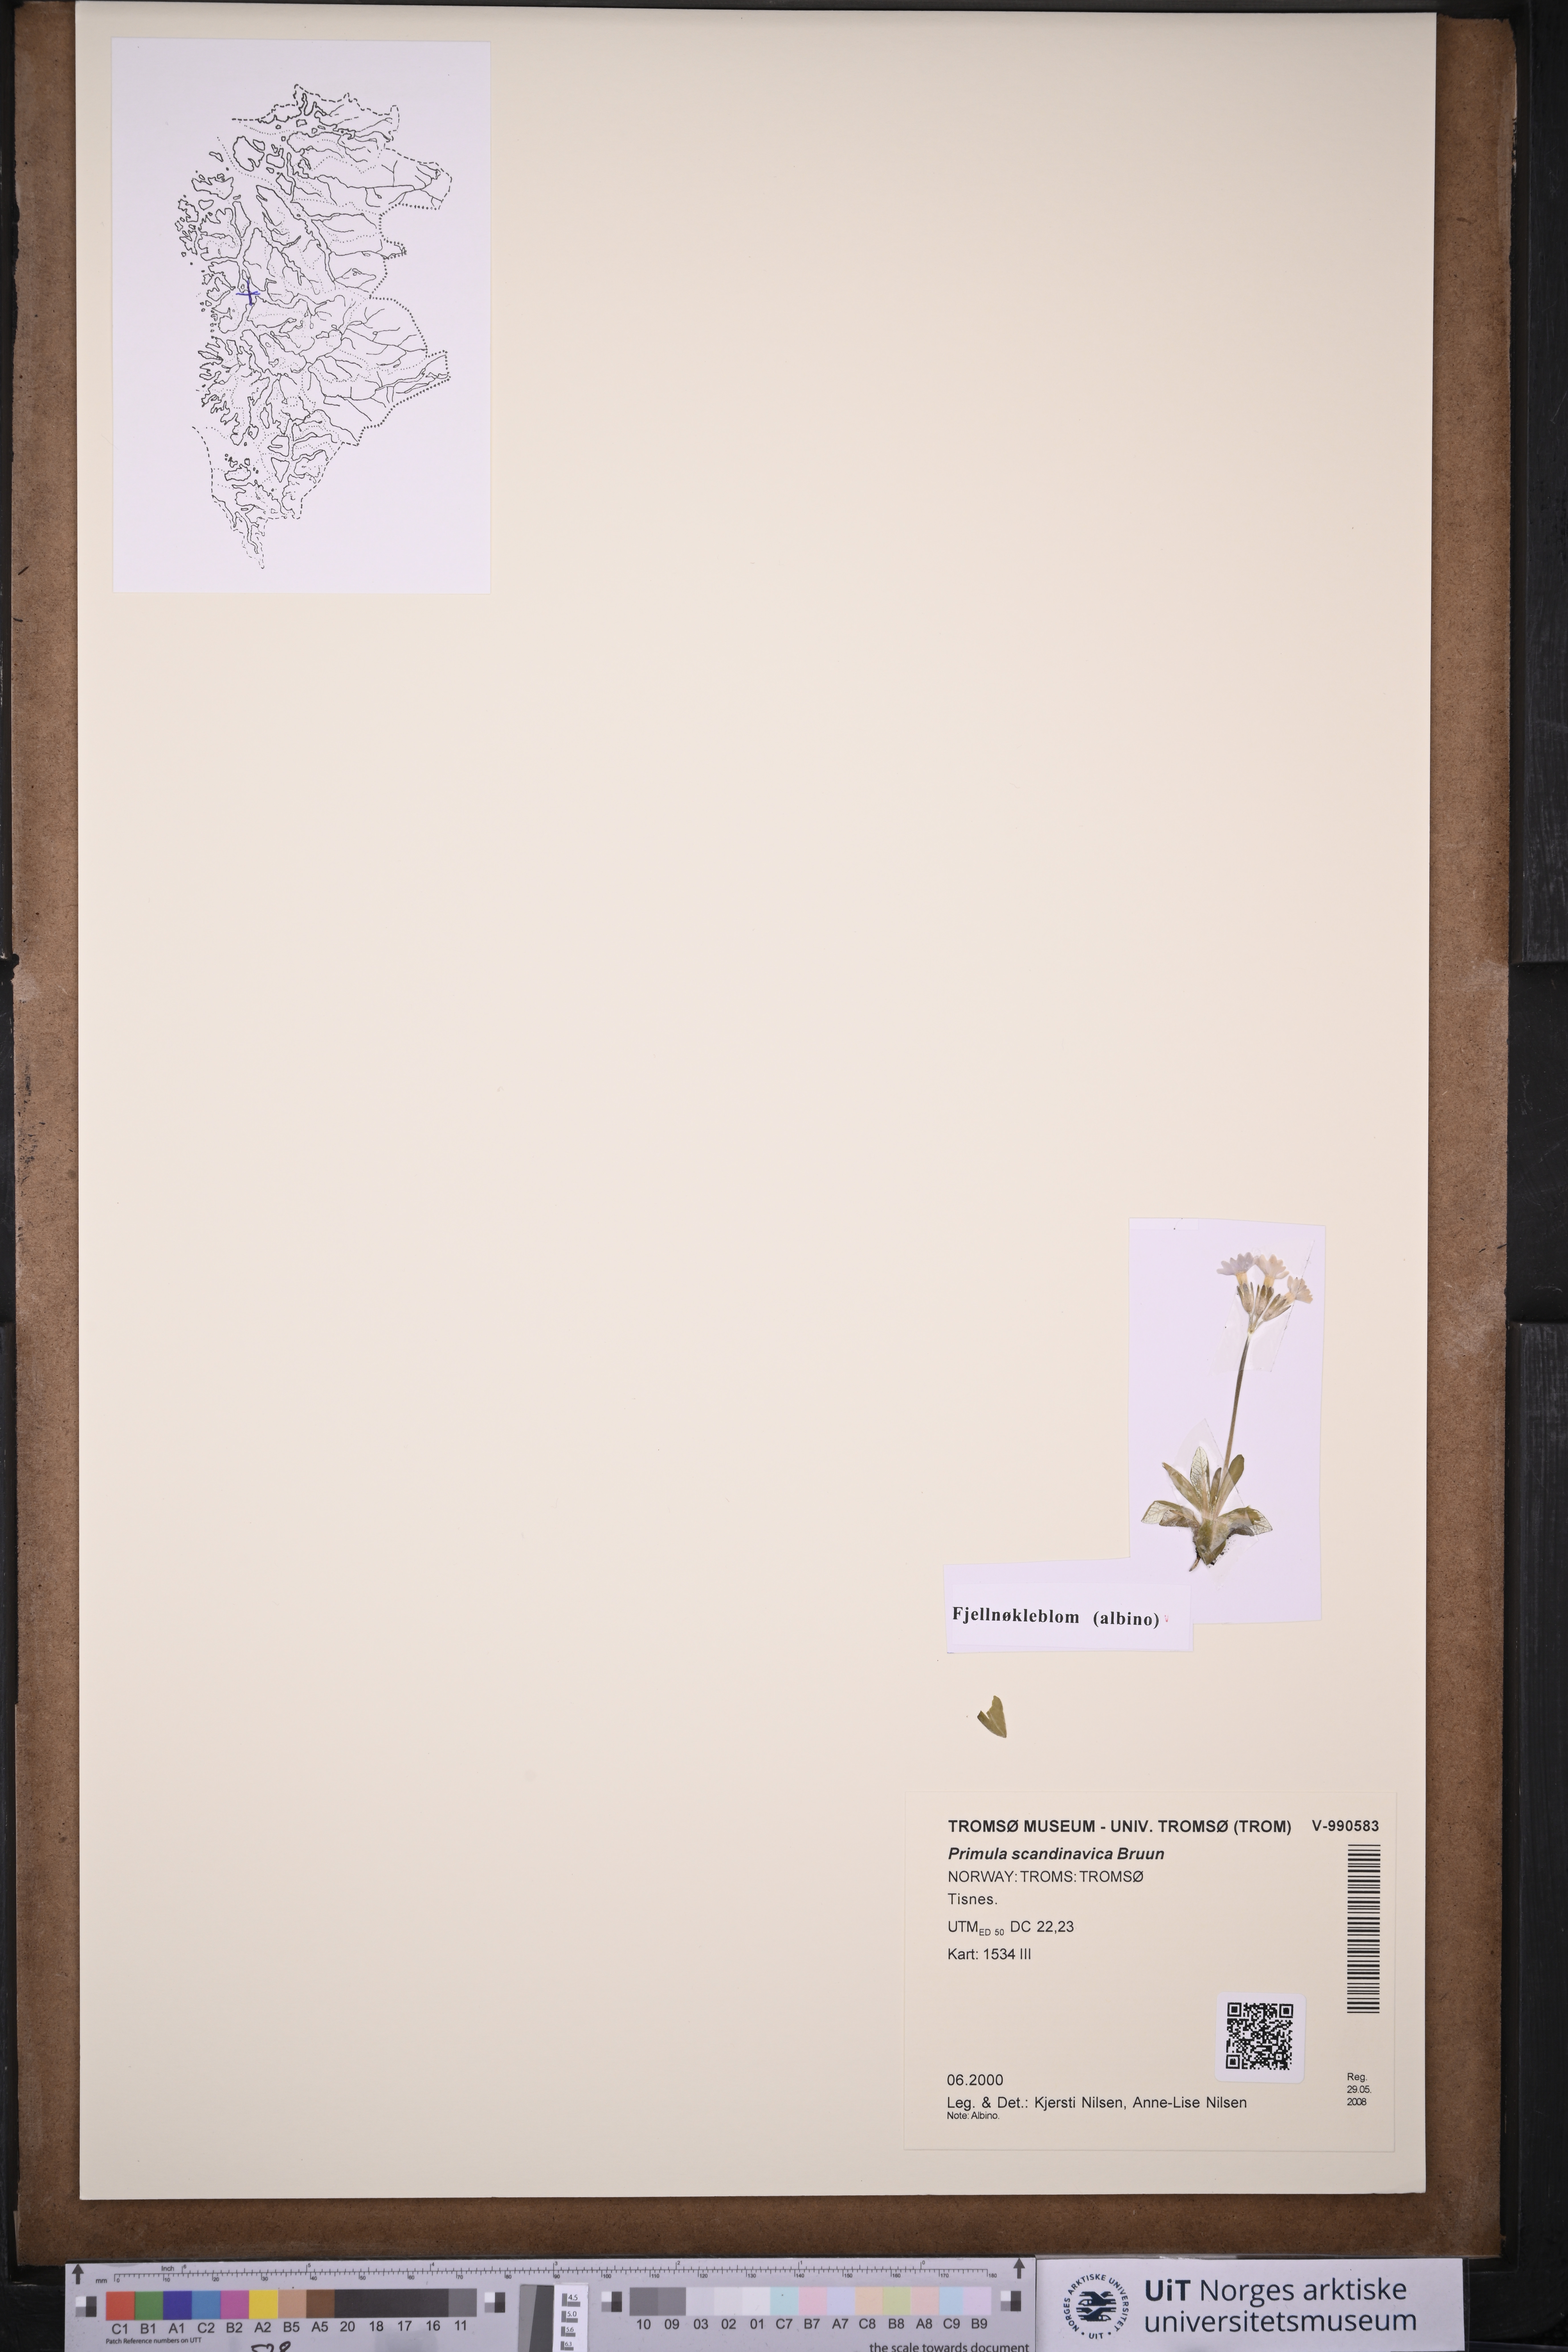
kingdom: Plantae
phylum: Tracheophyta
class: Magnoliopsida
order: Ericales
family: Primulaceae
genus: Primula
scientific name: Primula scandinavica
